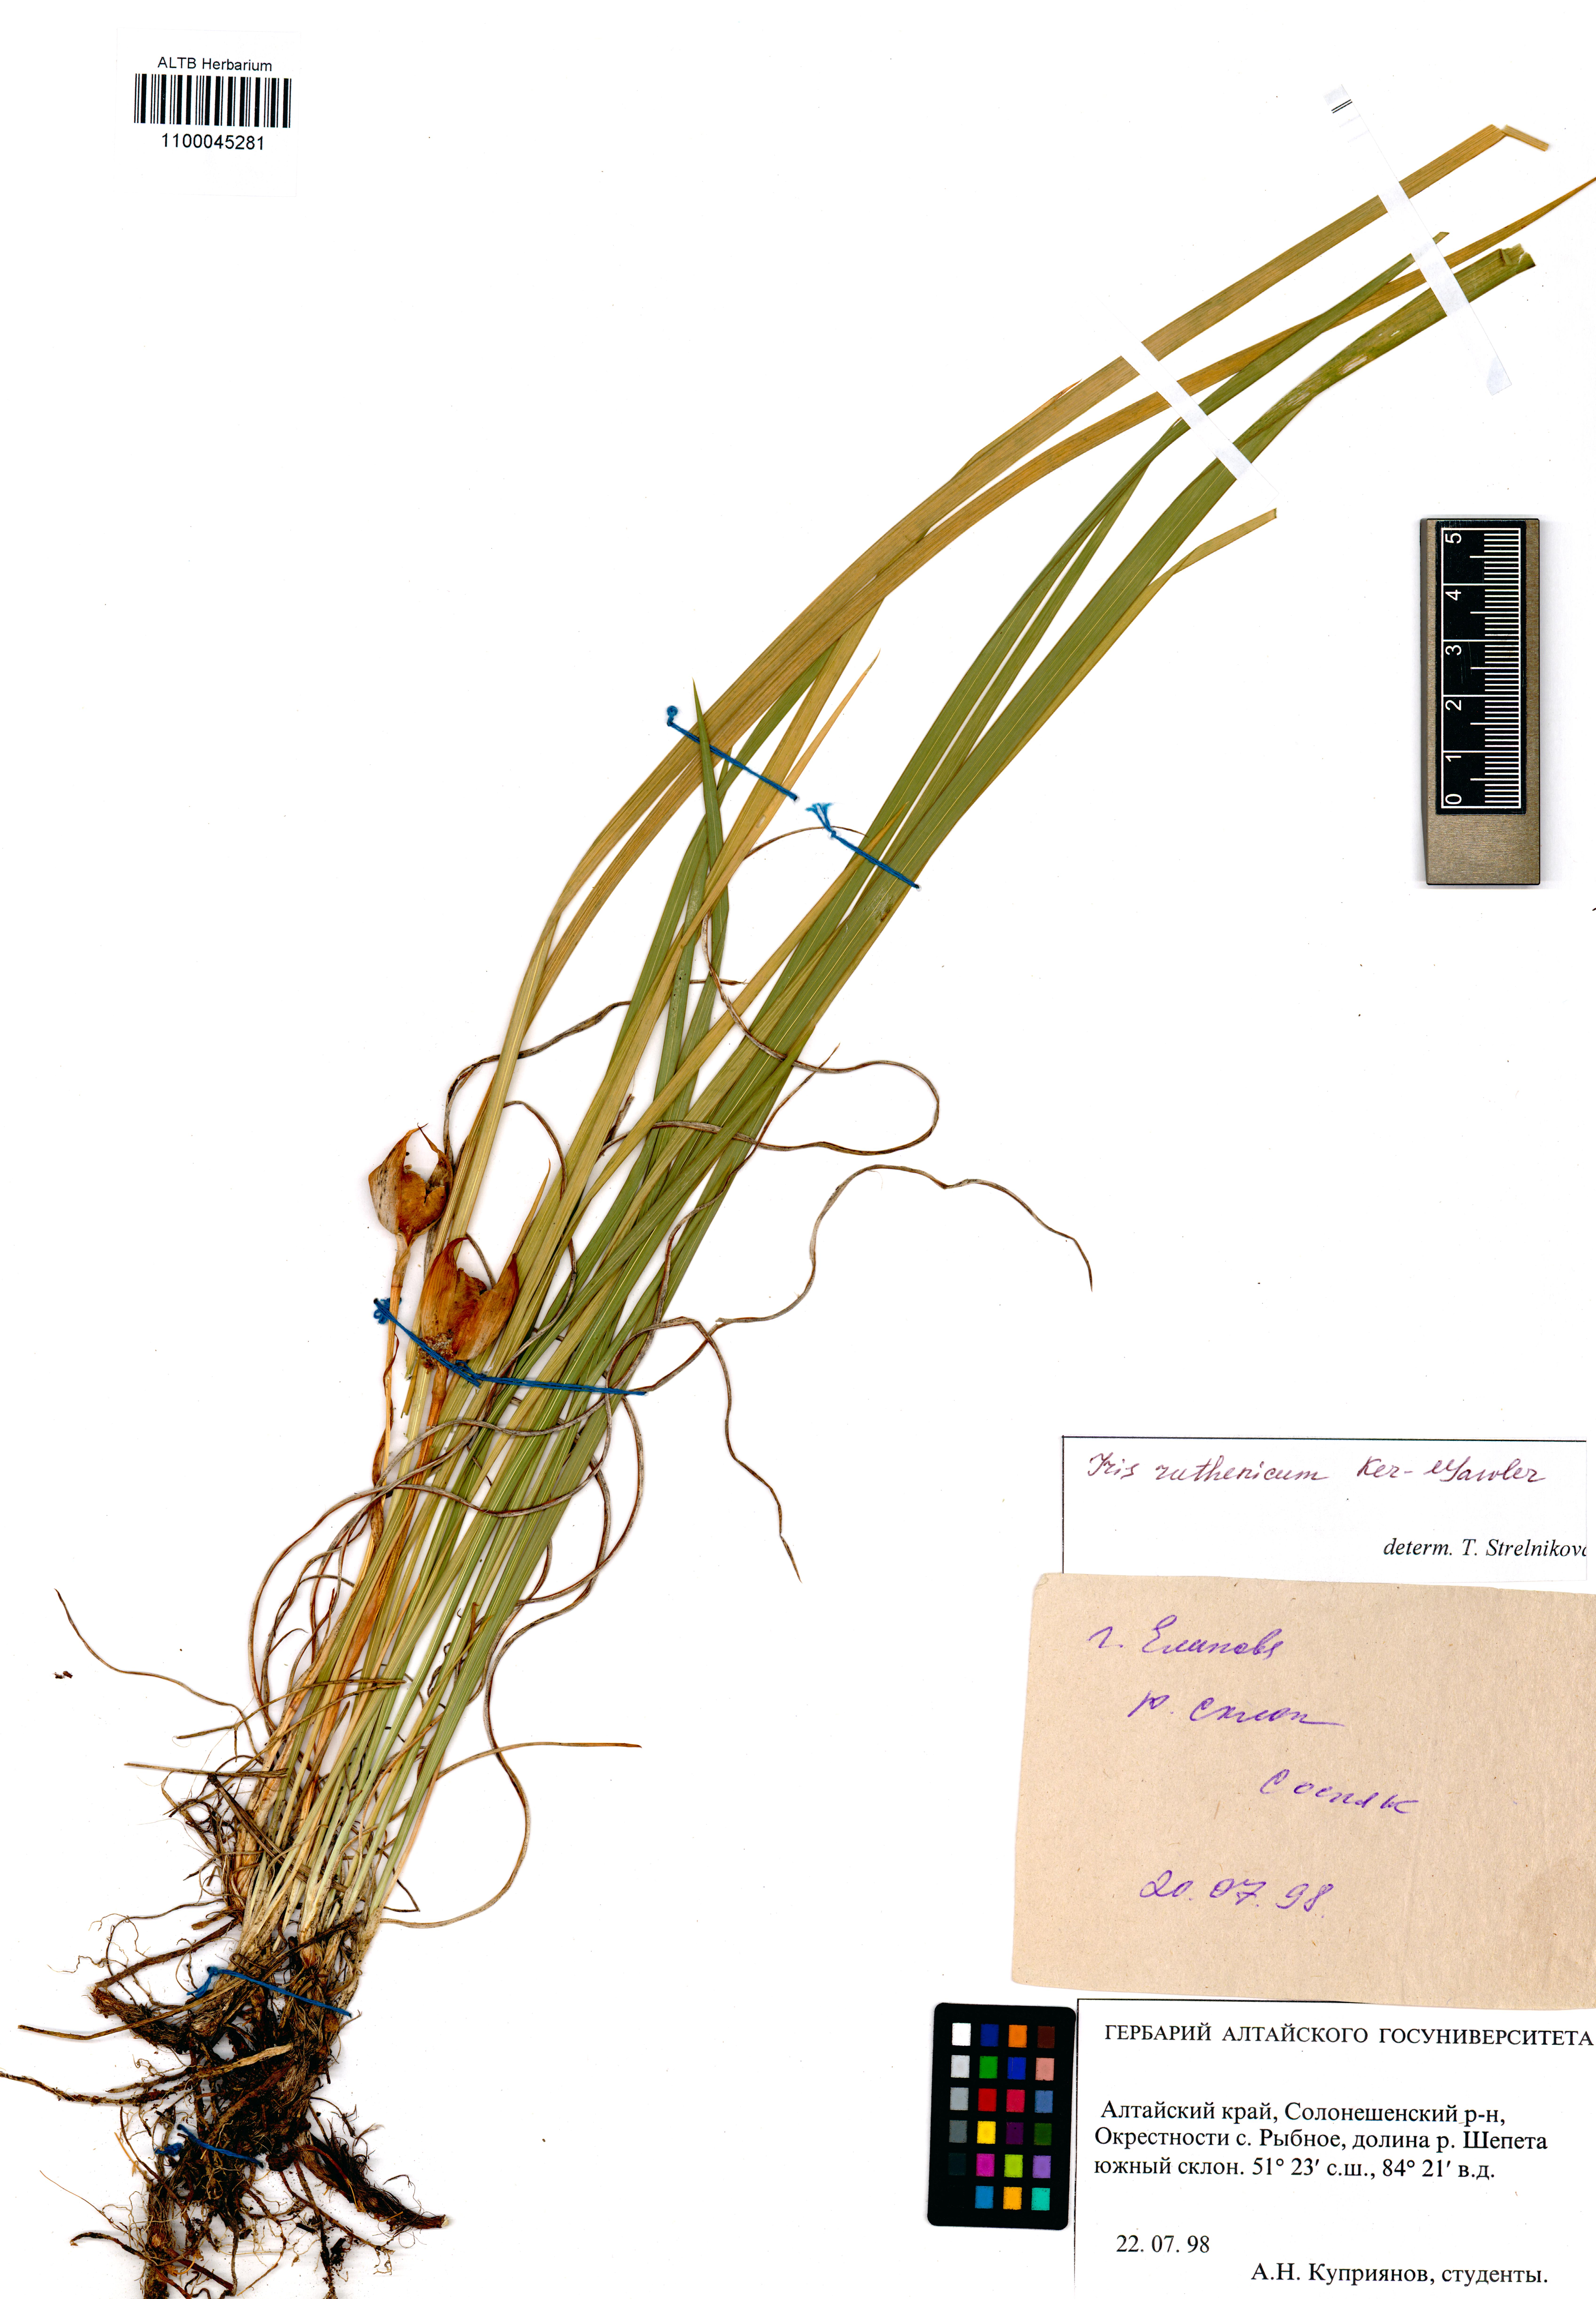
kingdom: Plantae
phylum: Tracheophyta
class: Liliopsida
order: Asparagales
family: Iridaceae
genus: Iris
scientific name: Iris ruthenica
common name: Purple-bract iris
